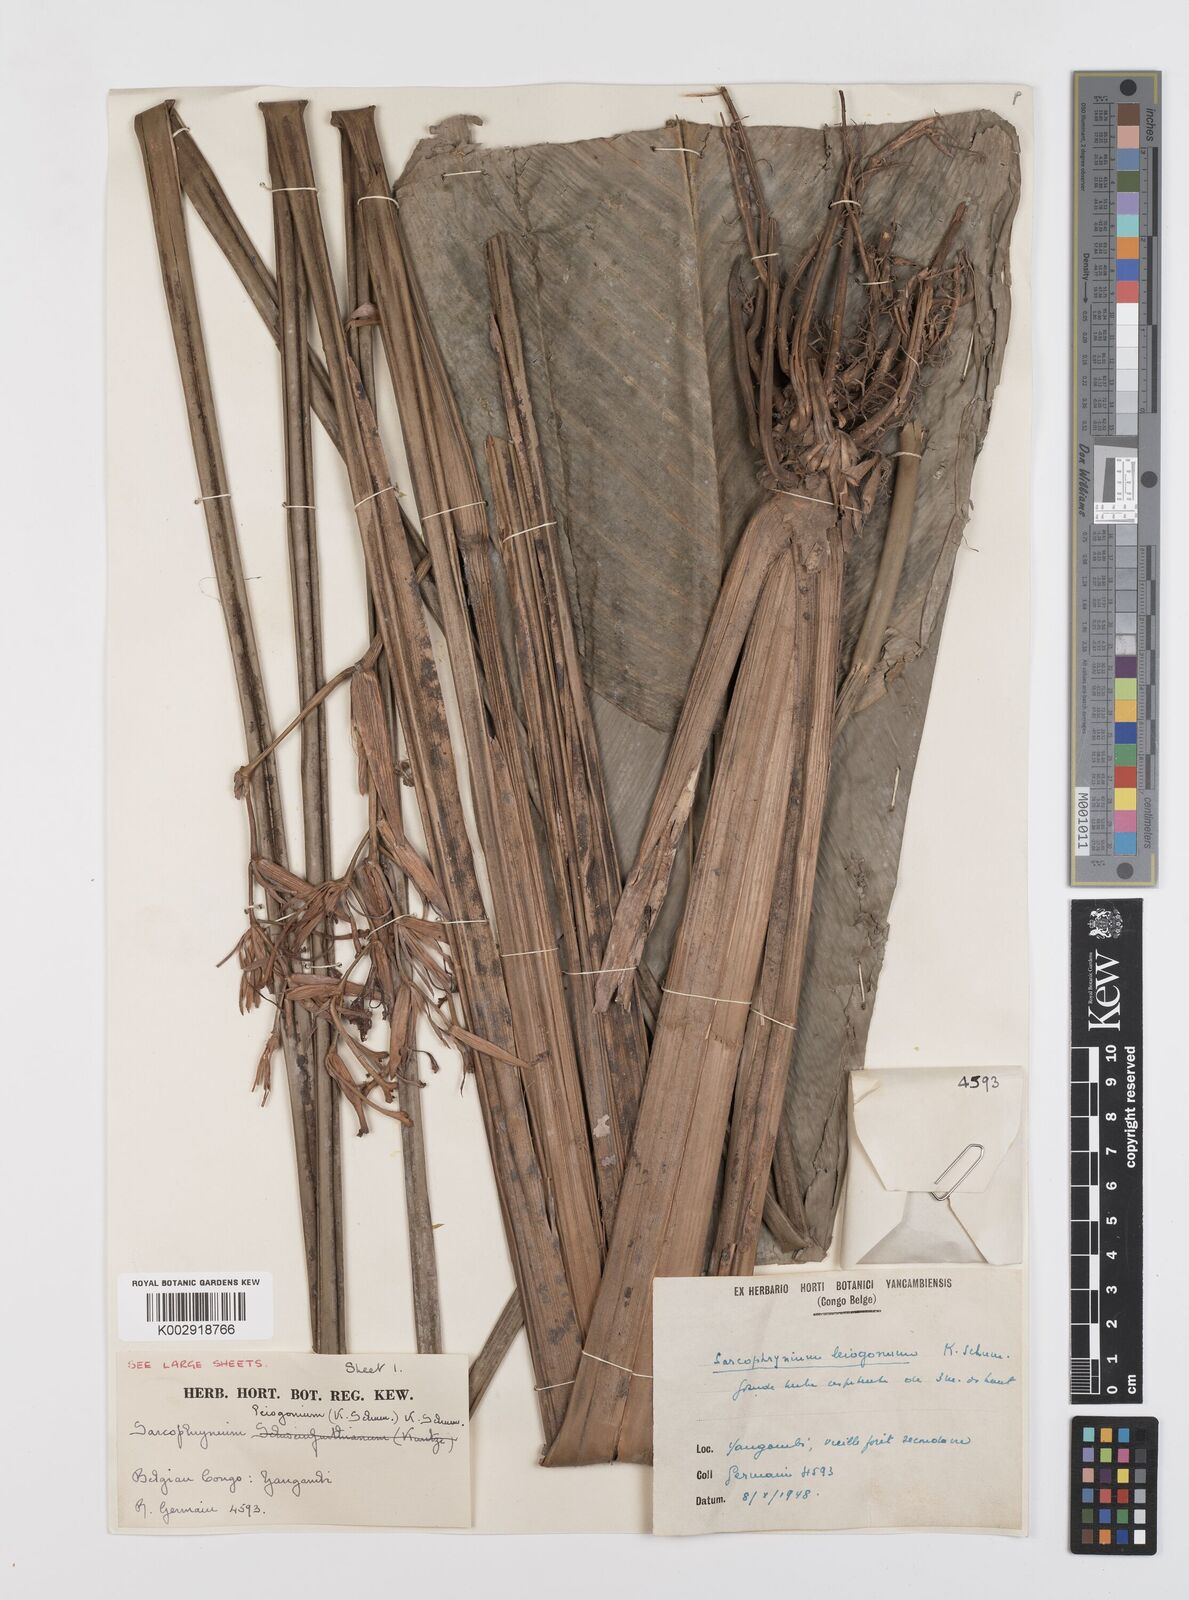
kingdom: Plantae
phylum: Tracheophyta
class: Liliopsida
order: Zingiberales
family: Marantaceae
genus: Sarcophrynium
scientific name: Sarcophrynium prionogonium
